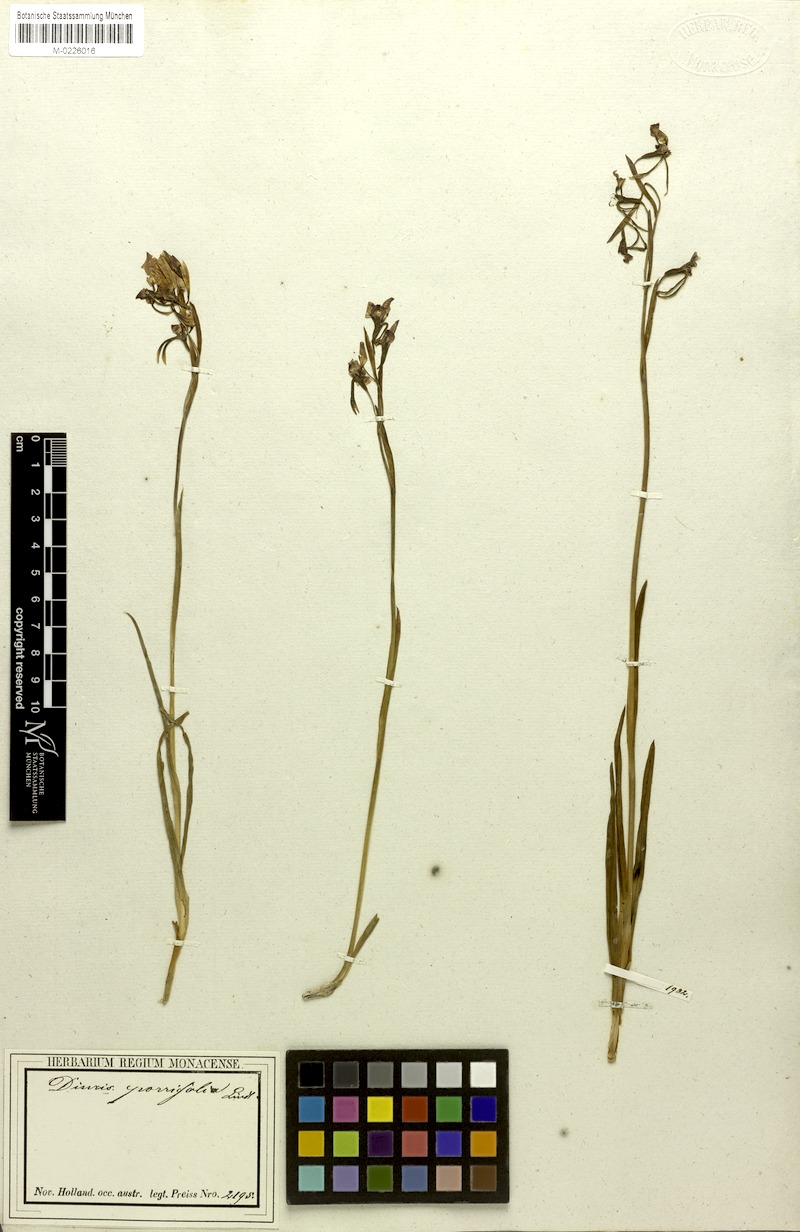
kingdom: Plantae
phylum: Tracheophyta
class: Liliopsida
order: Asparagales
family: Orchidaceae
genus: Diuris
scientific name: Diuris corymbosa
